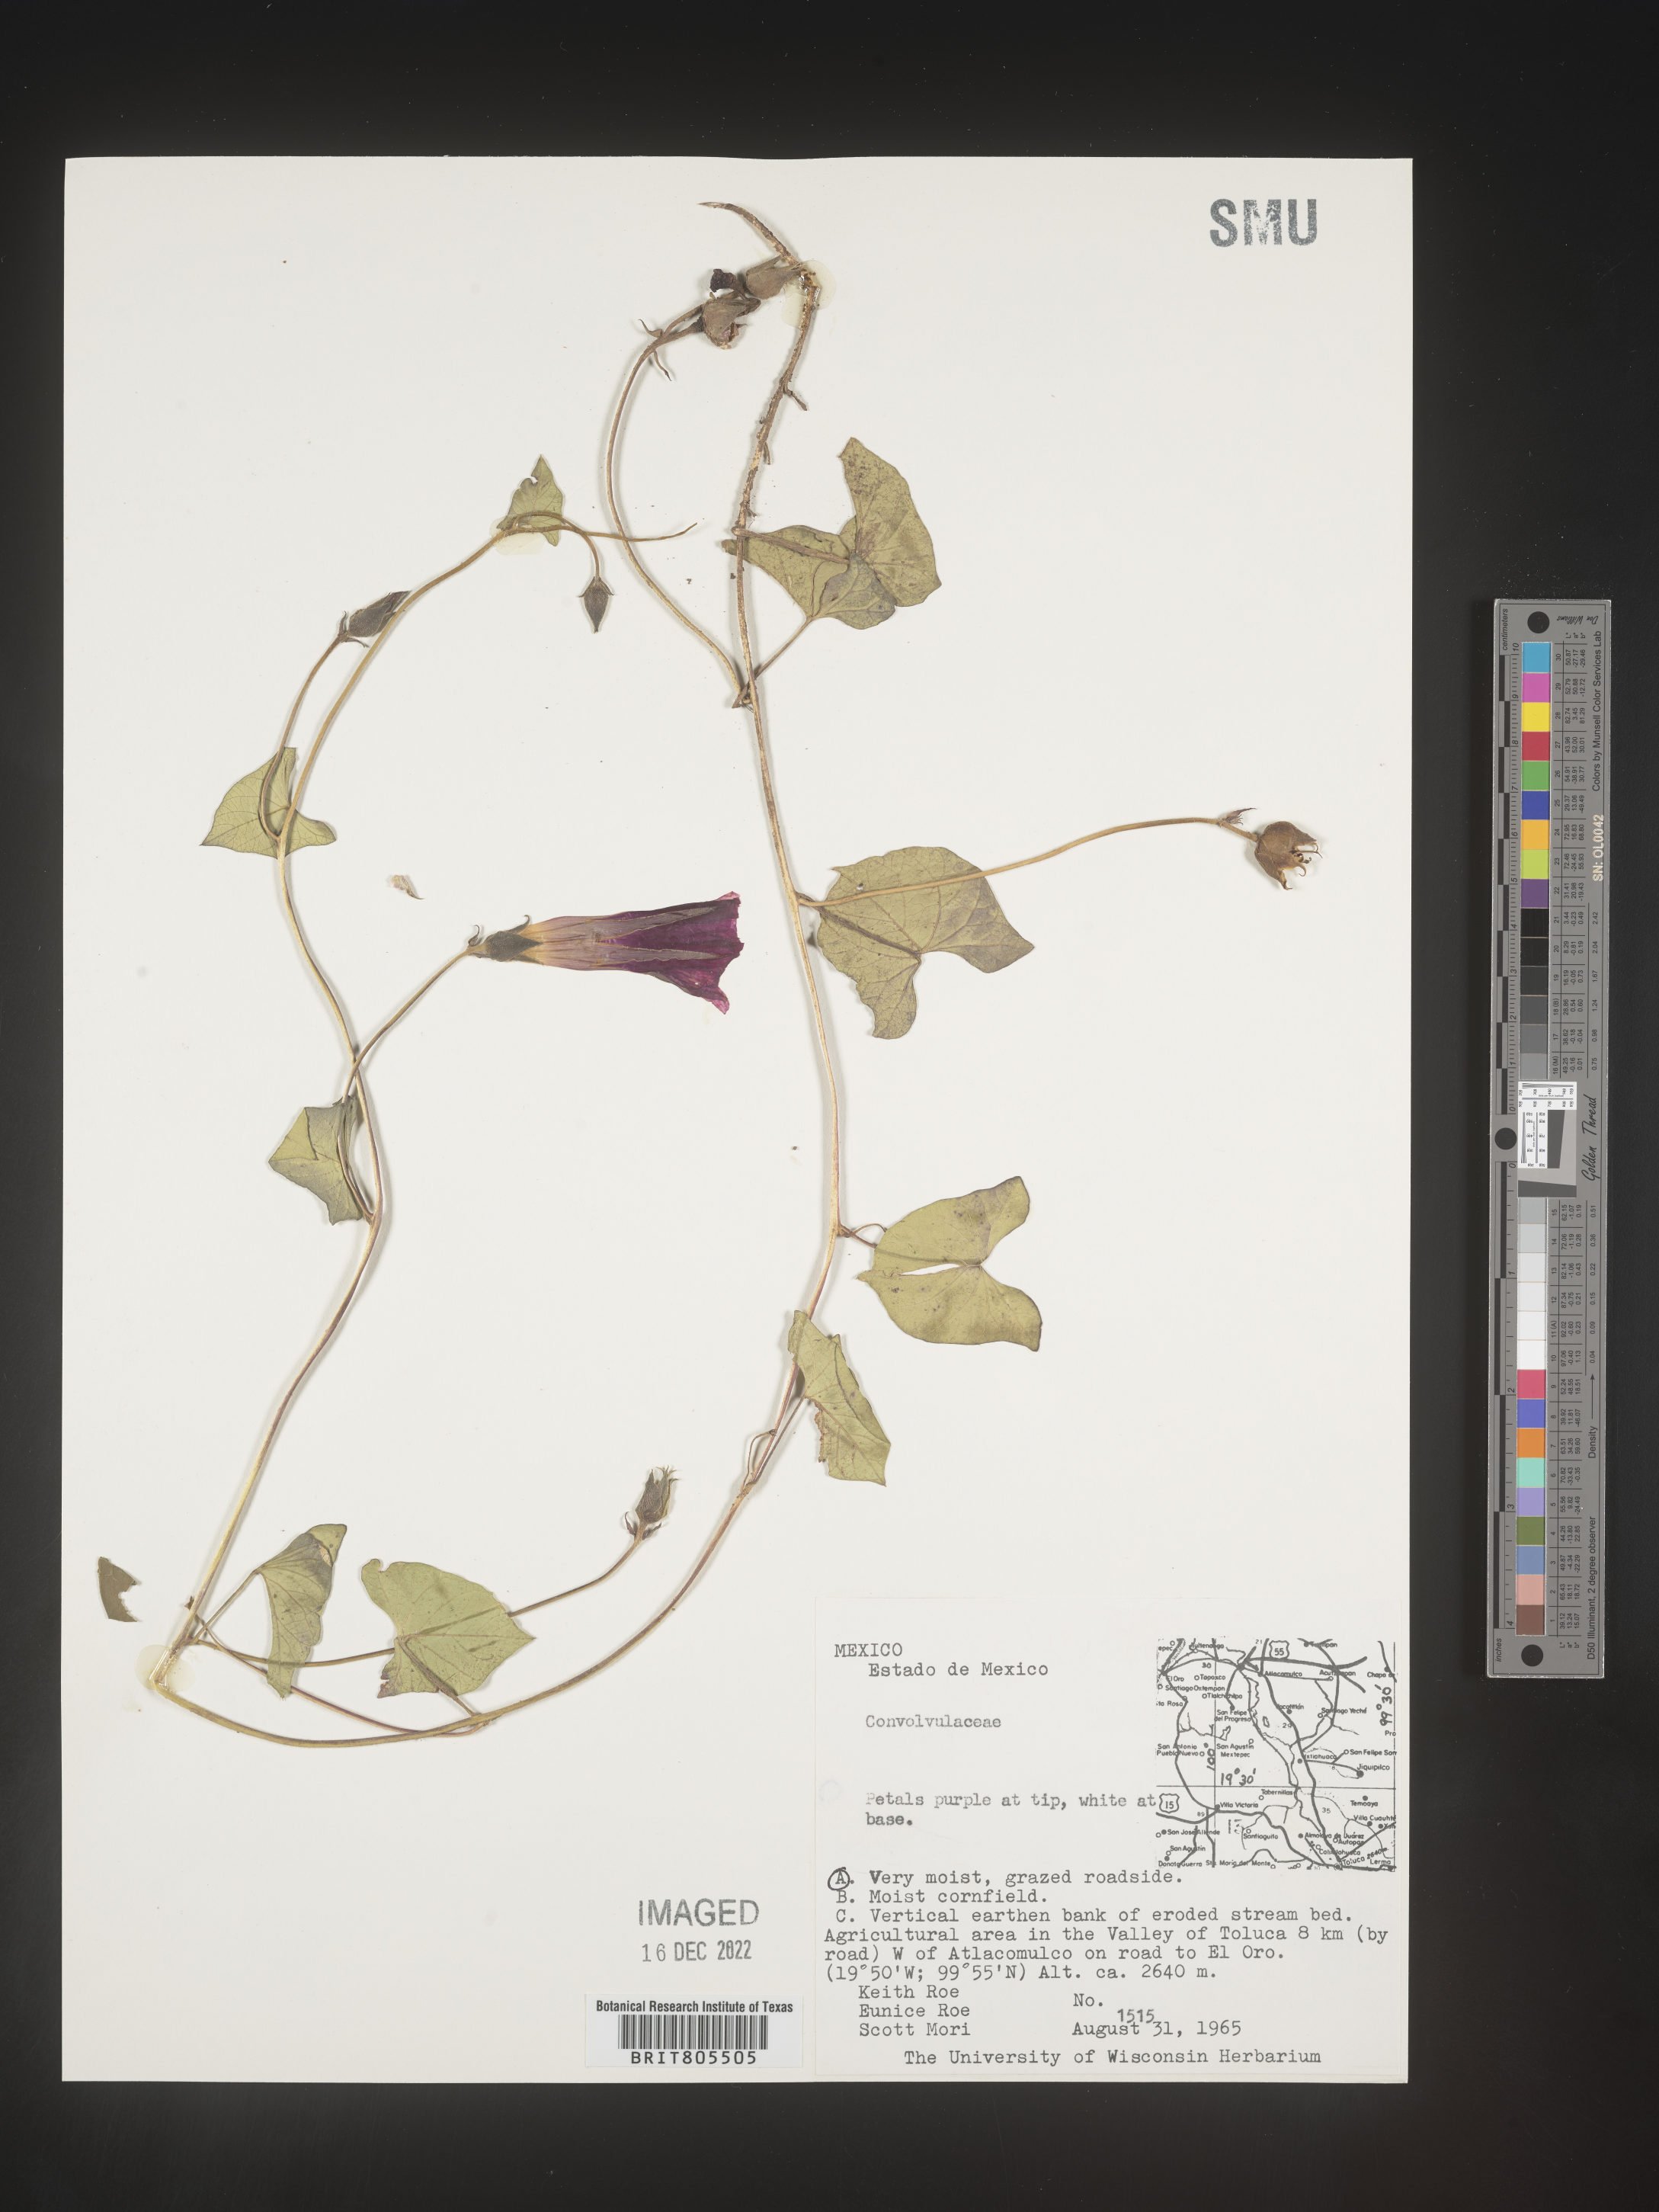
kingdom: Plantae
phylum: Tracheophyta
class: Magnoliopsida
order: Solanales
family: Convolvulaceae
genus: Ipomoea
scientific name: Ipomoea
